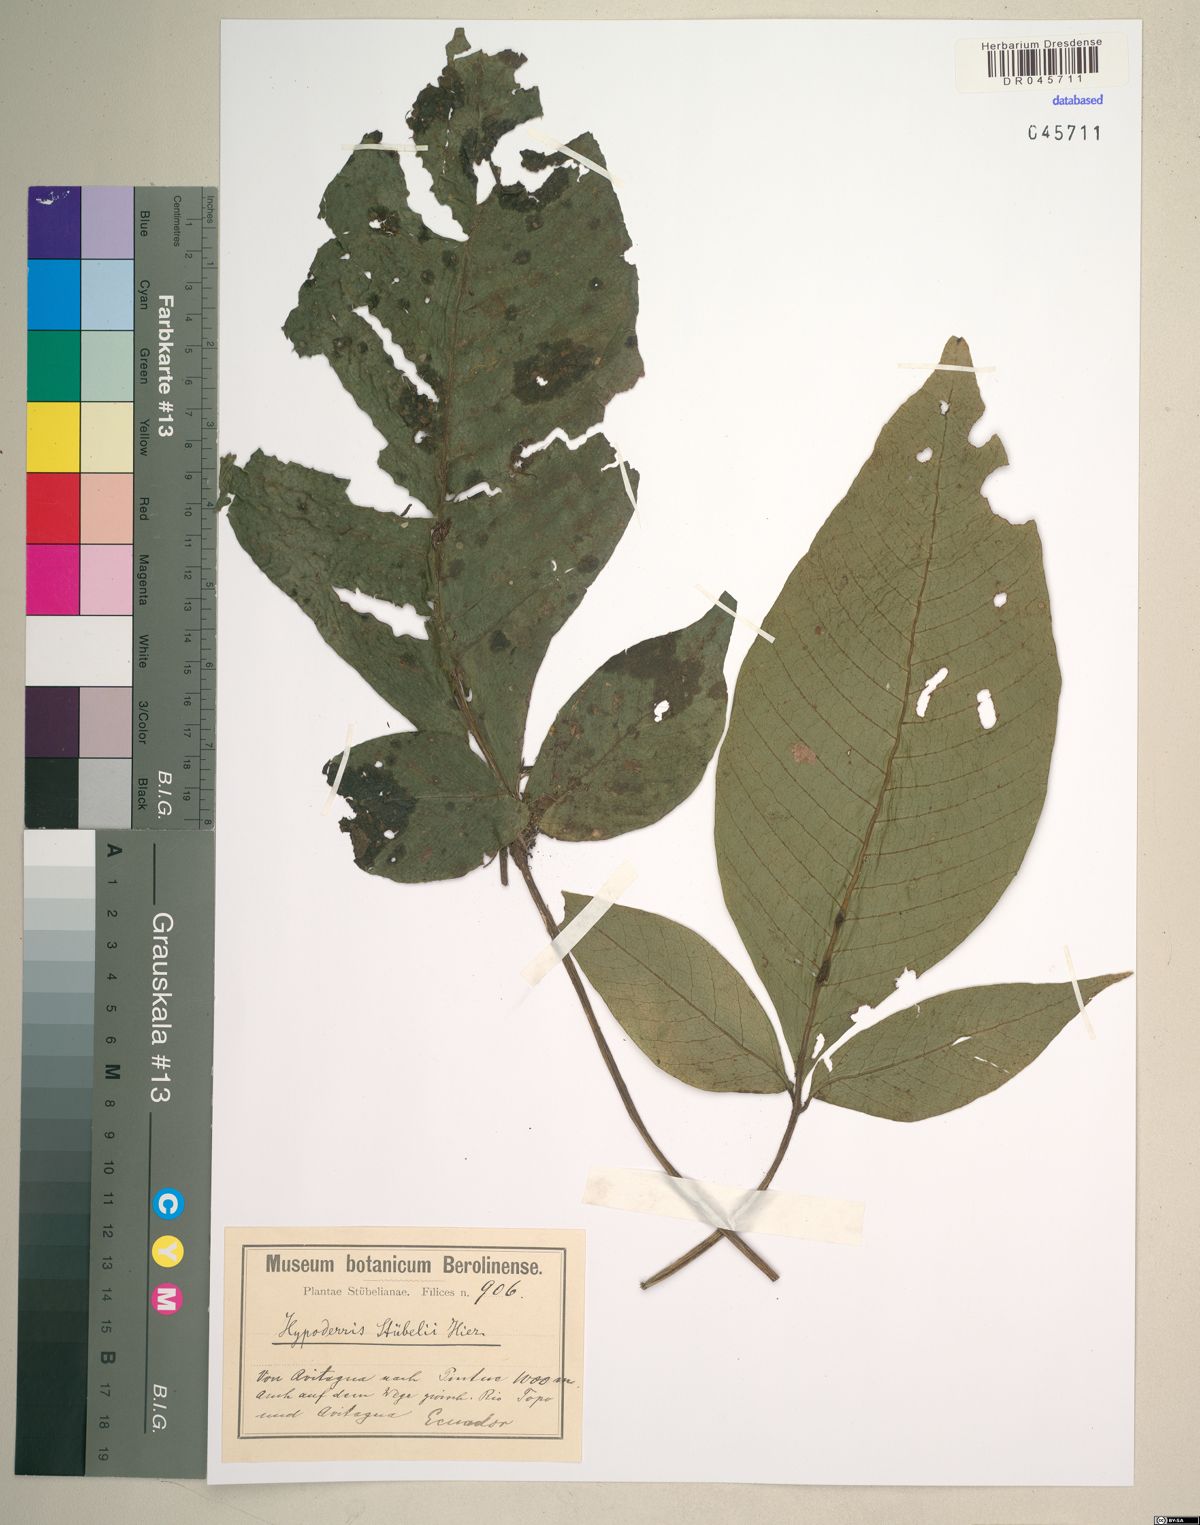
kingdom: Plantae
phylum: Tracheophyta
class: Polypodiopsida
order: Polypodiales
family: Dryopteridaceae
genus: Mickelia
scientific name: Mickelia oligarchica
